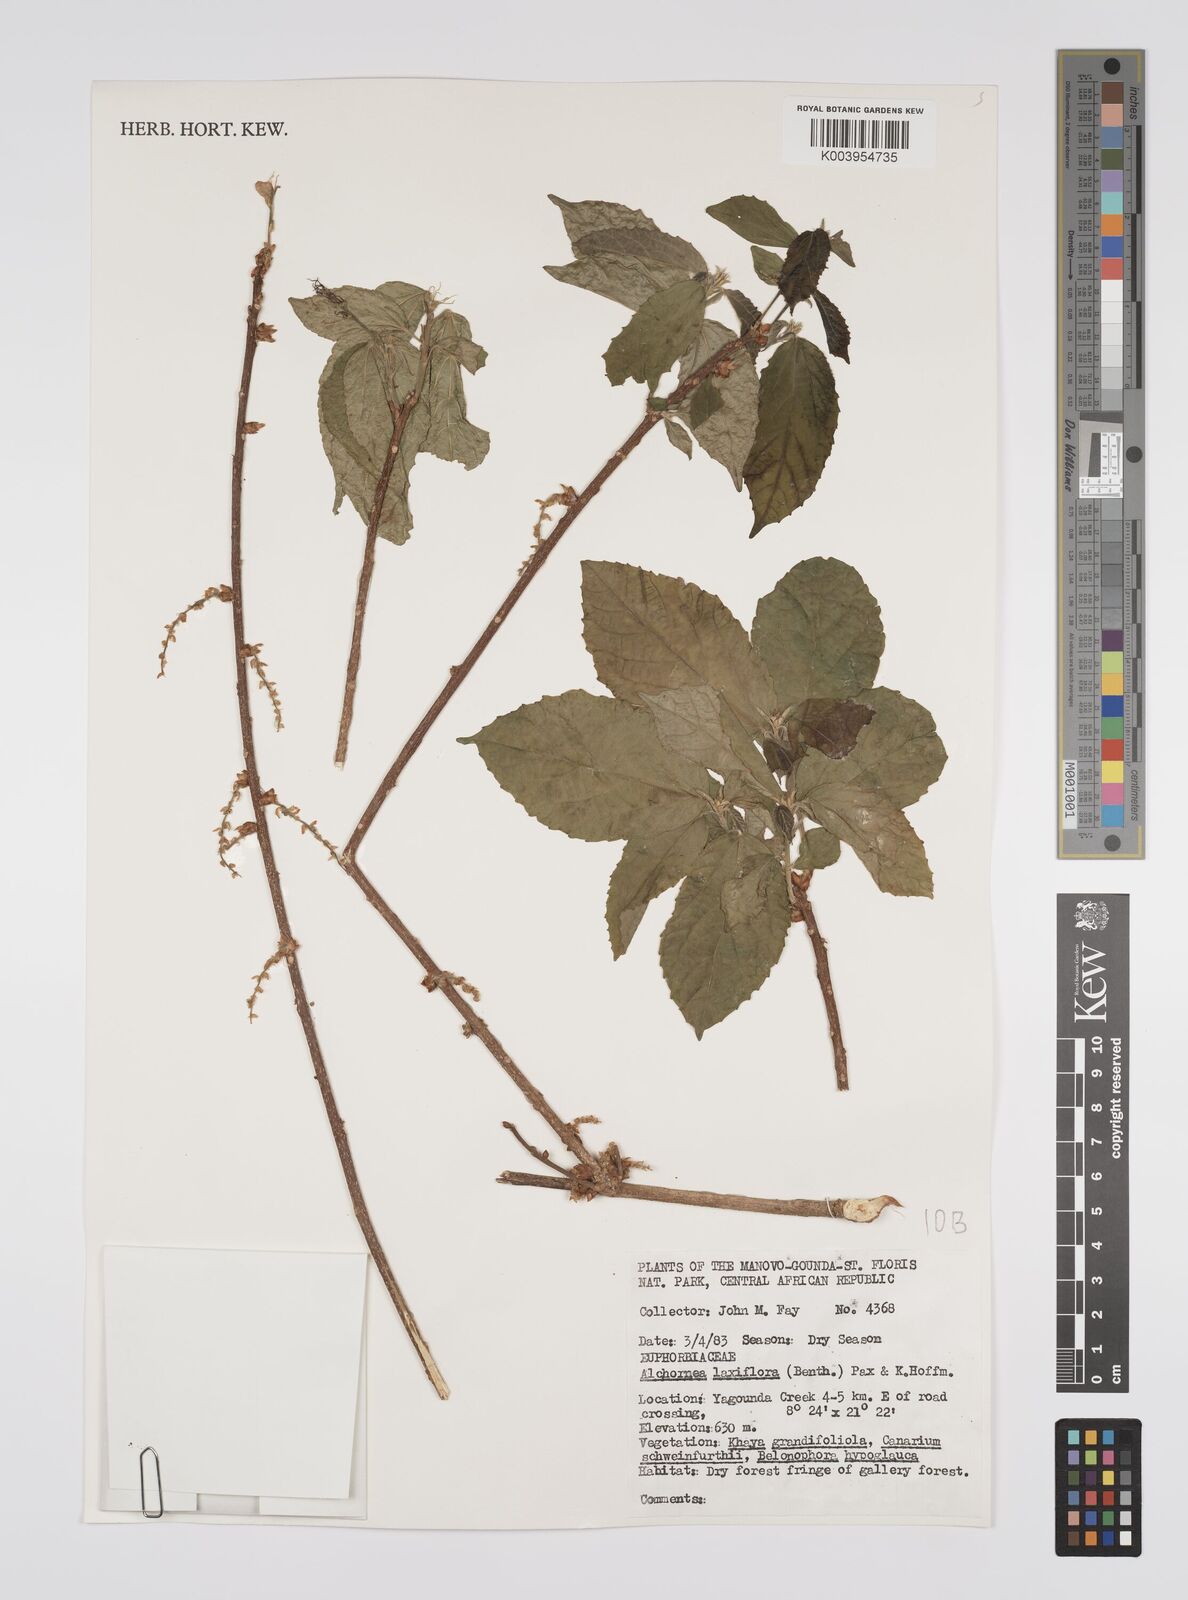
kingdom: Plantae
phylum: Tracheophyta
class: Magnoliopsida
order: Malpighiales
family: Euphorbiaceae
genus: Alchornea
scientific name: Alchornea laxiflora
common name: Lowveld bead-string
